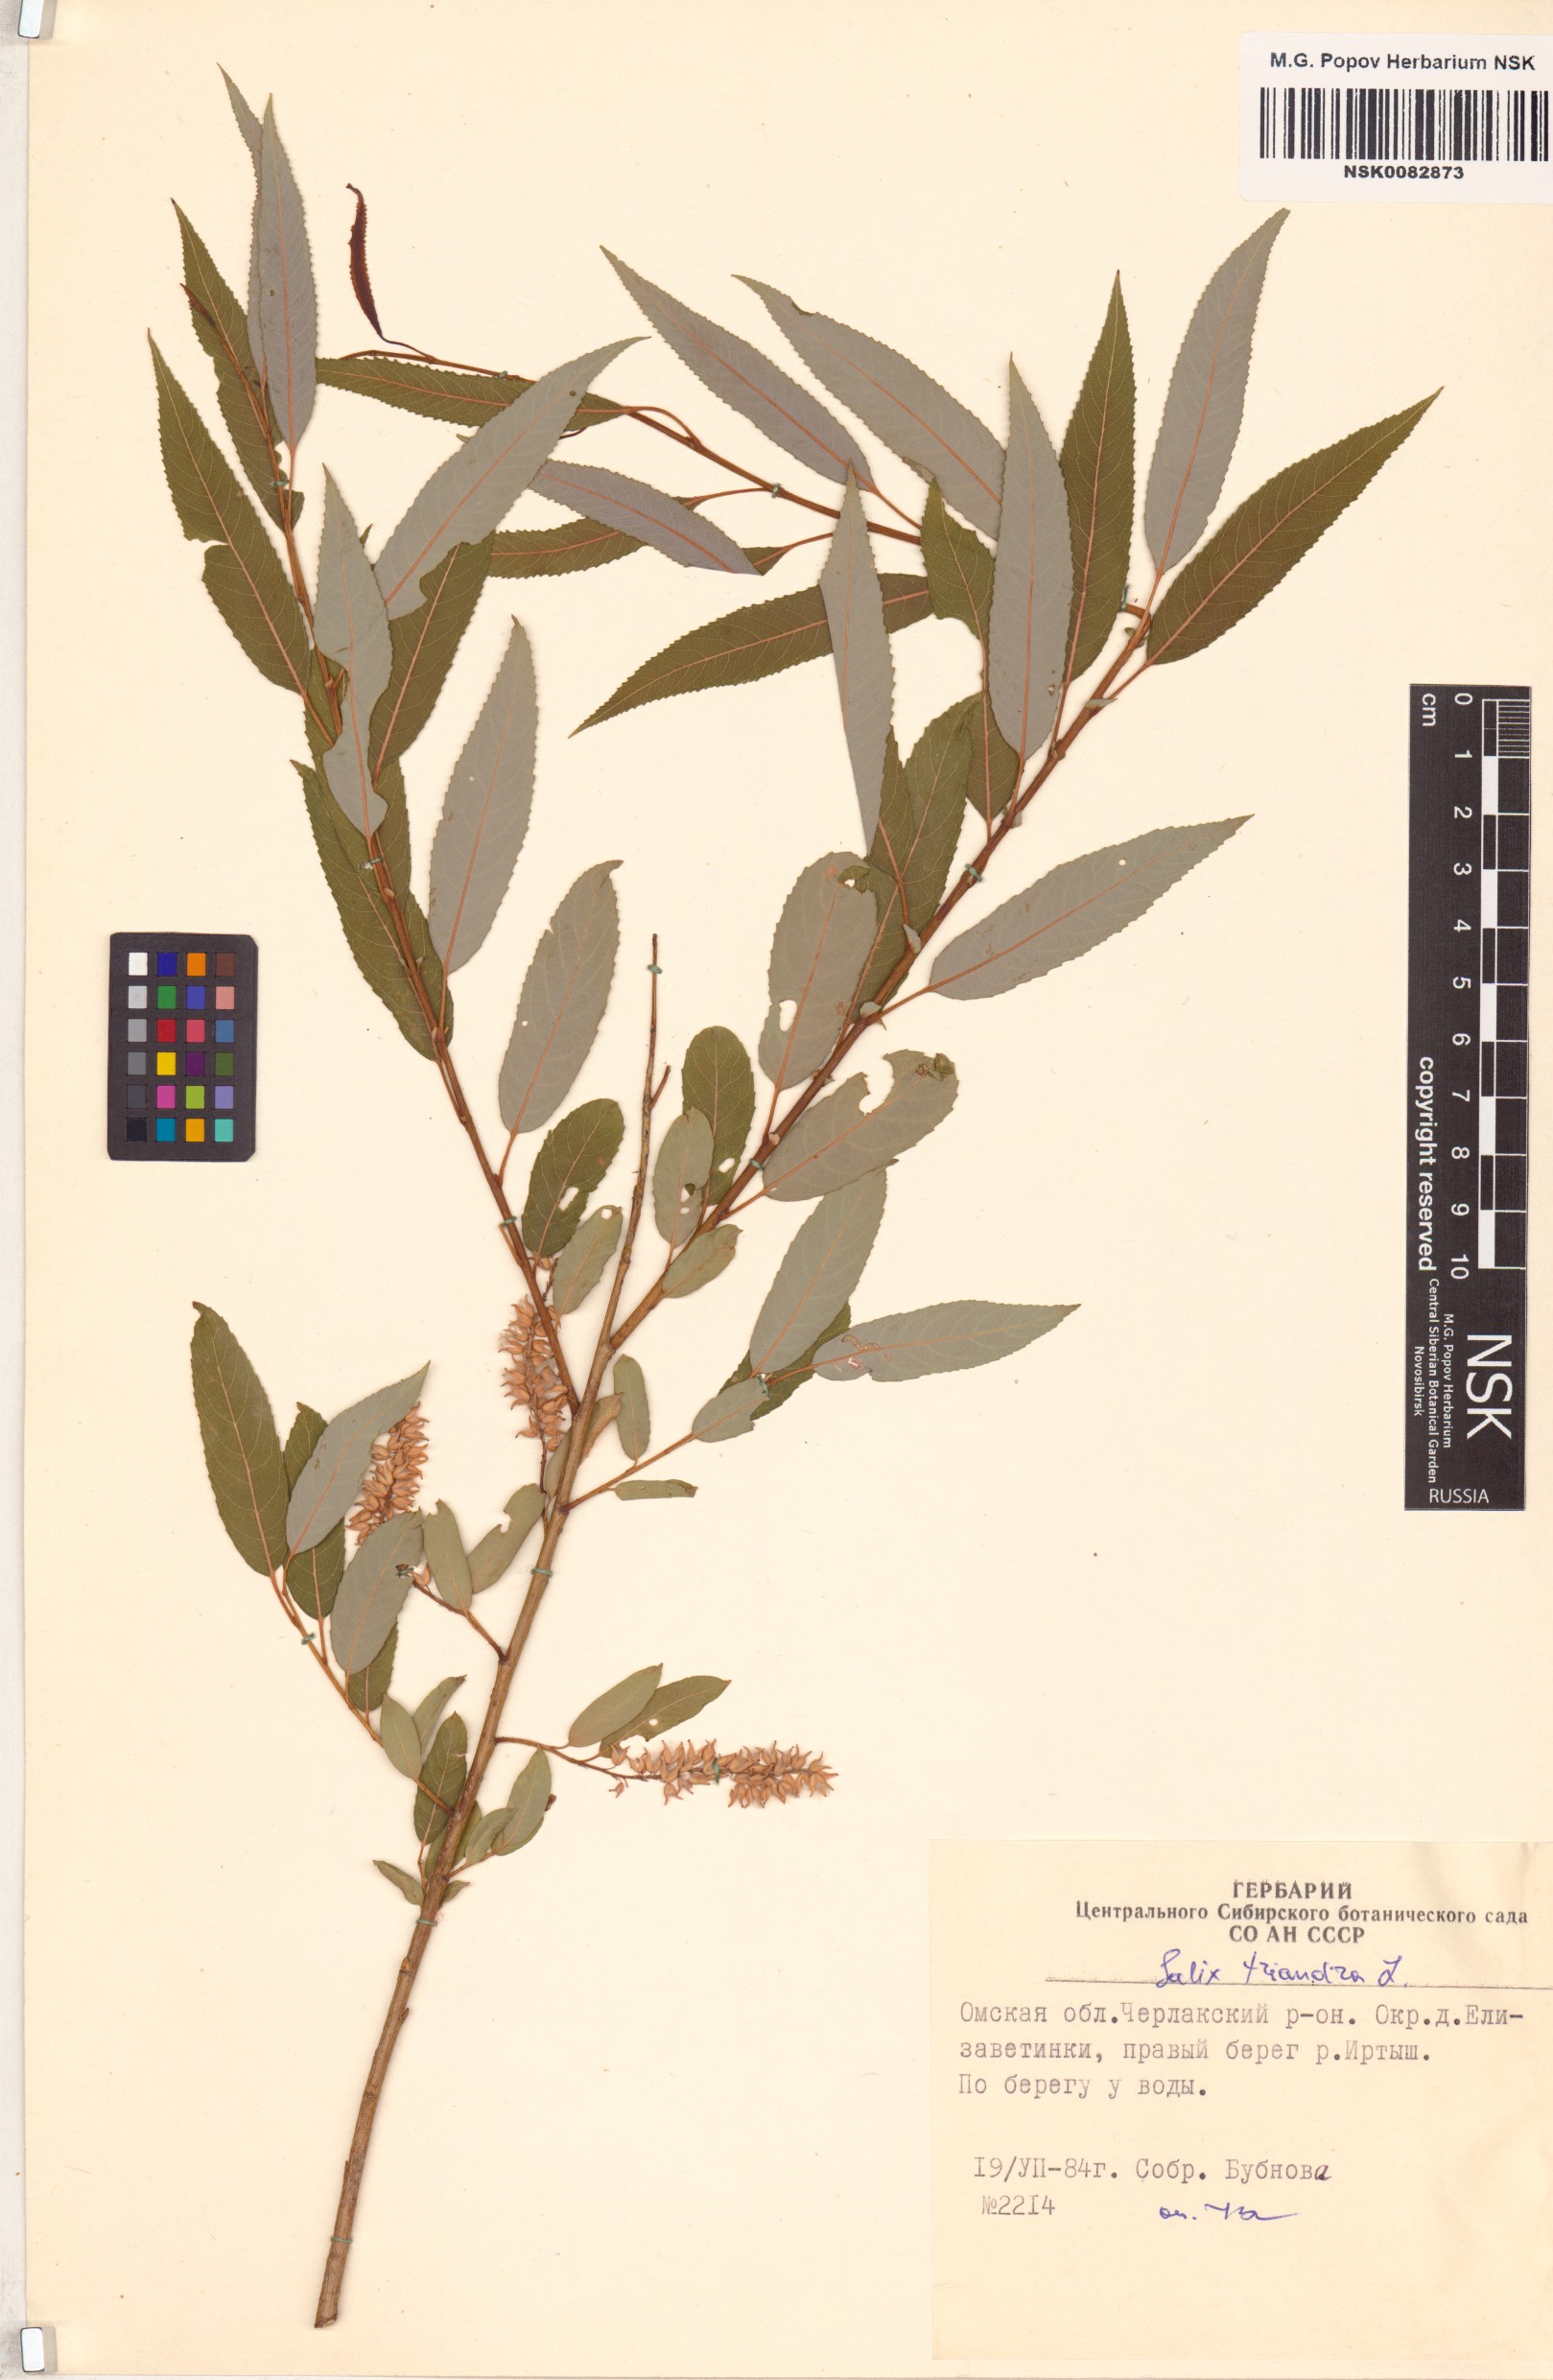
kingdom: Plantae
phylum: Tracheophyta
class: Magnoliopsida
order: Malpighiales
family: Salicaceae
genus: Salix
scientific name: Salix triandra
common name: Almond willow
